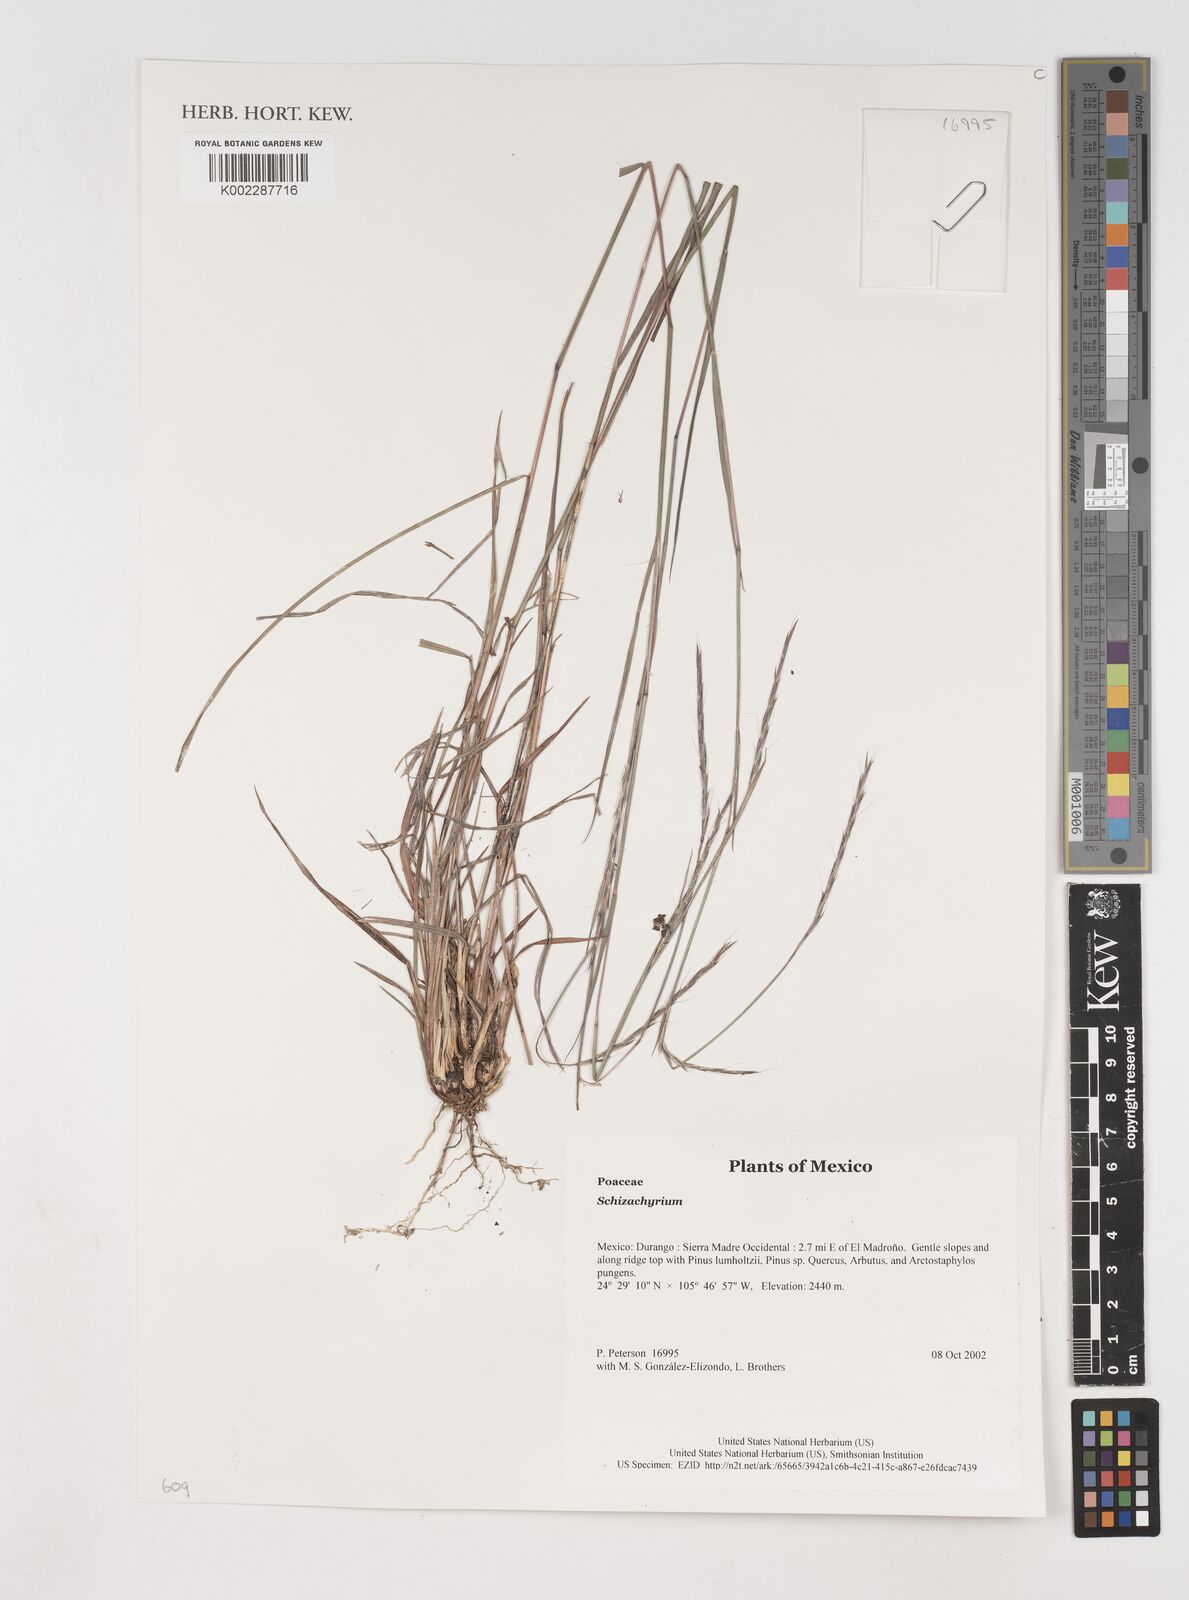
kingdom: Plantae
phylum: Tracheophyta
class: Liliopsida
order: Poales
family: Poaceae
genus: Schizachyrium
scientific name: Schizachyrium
